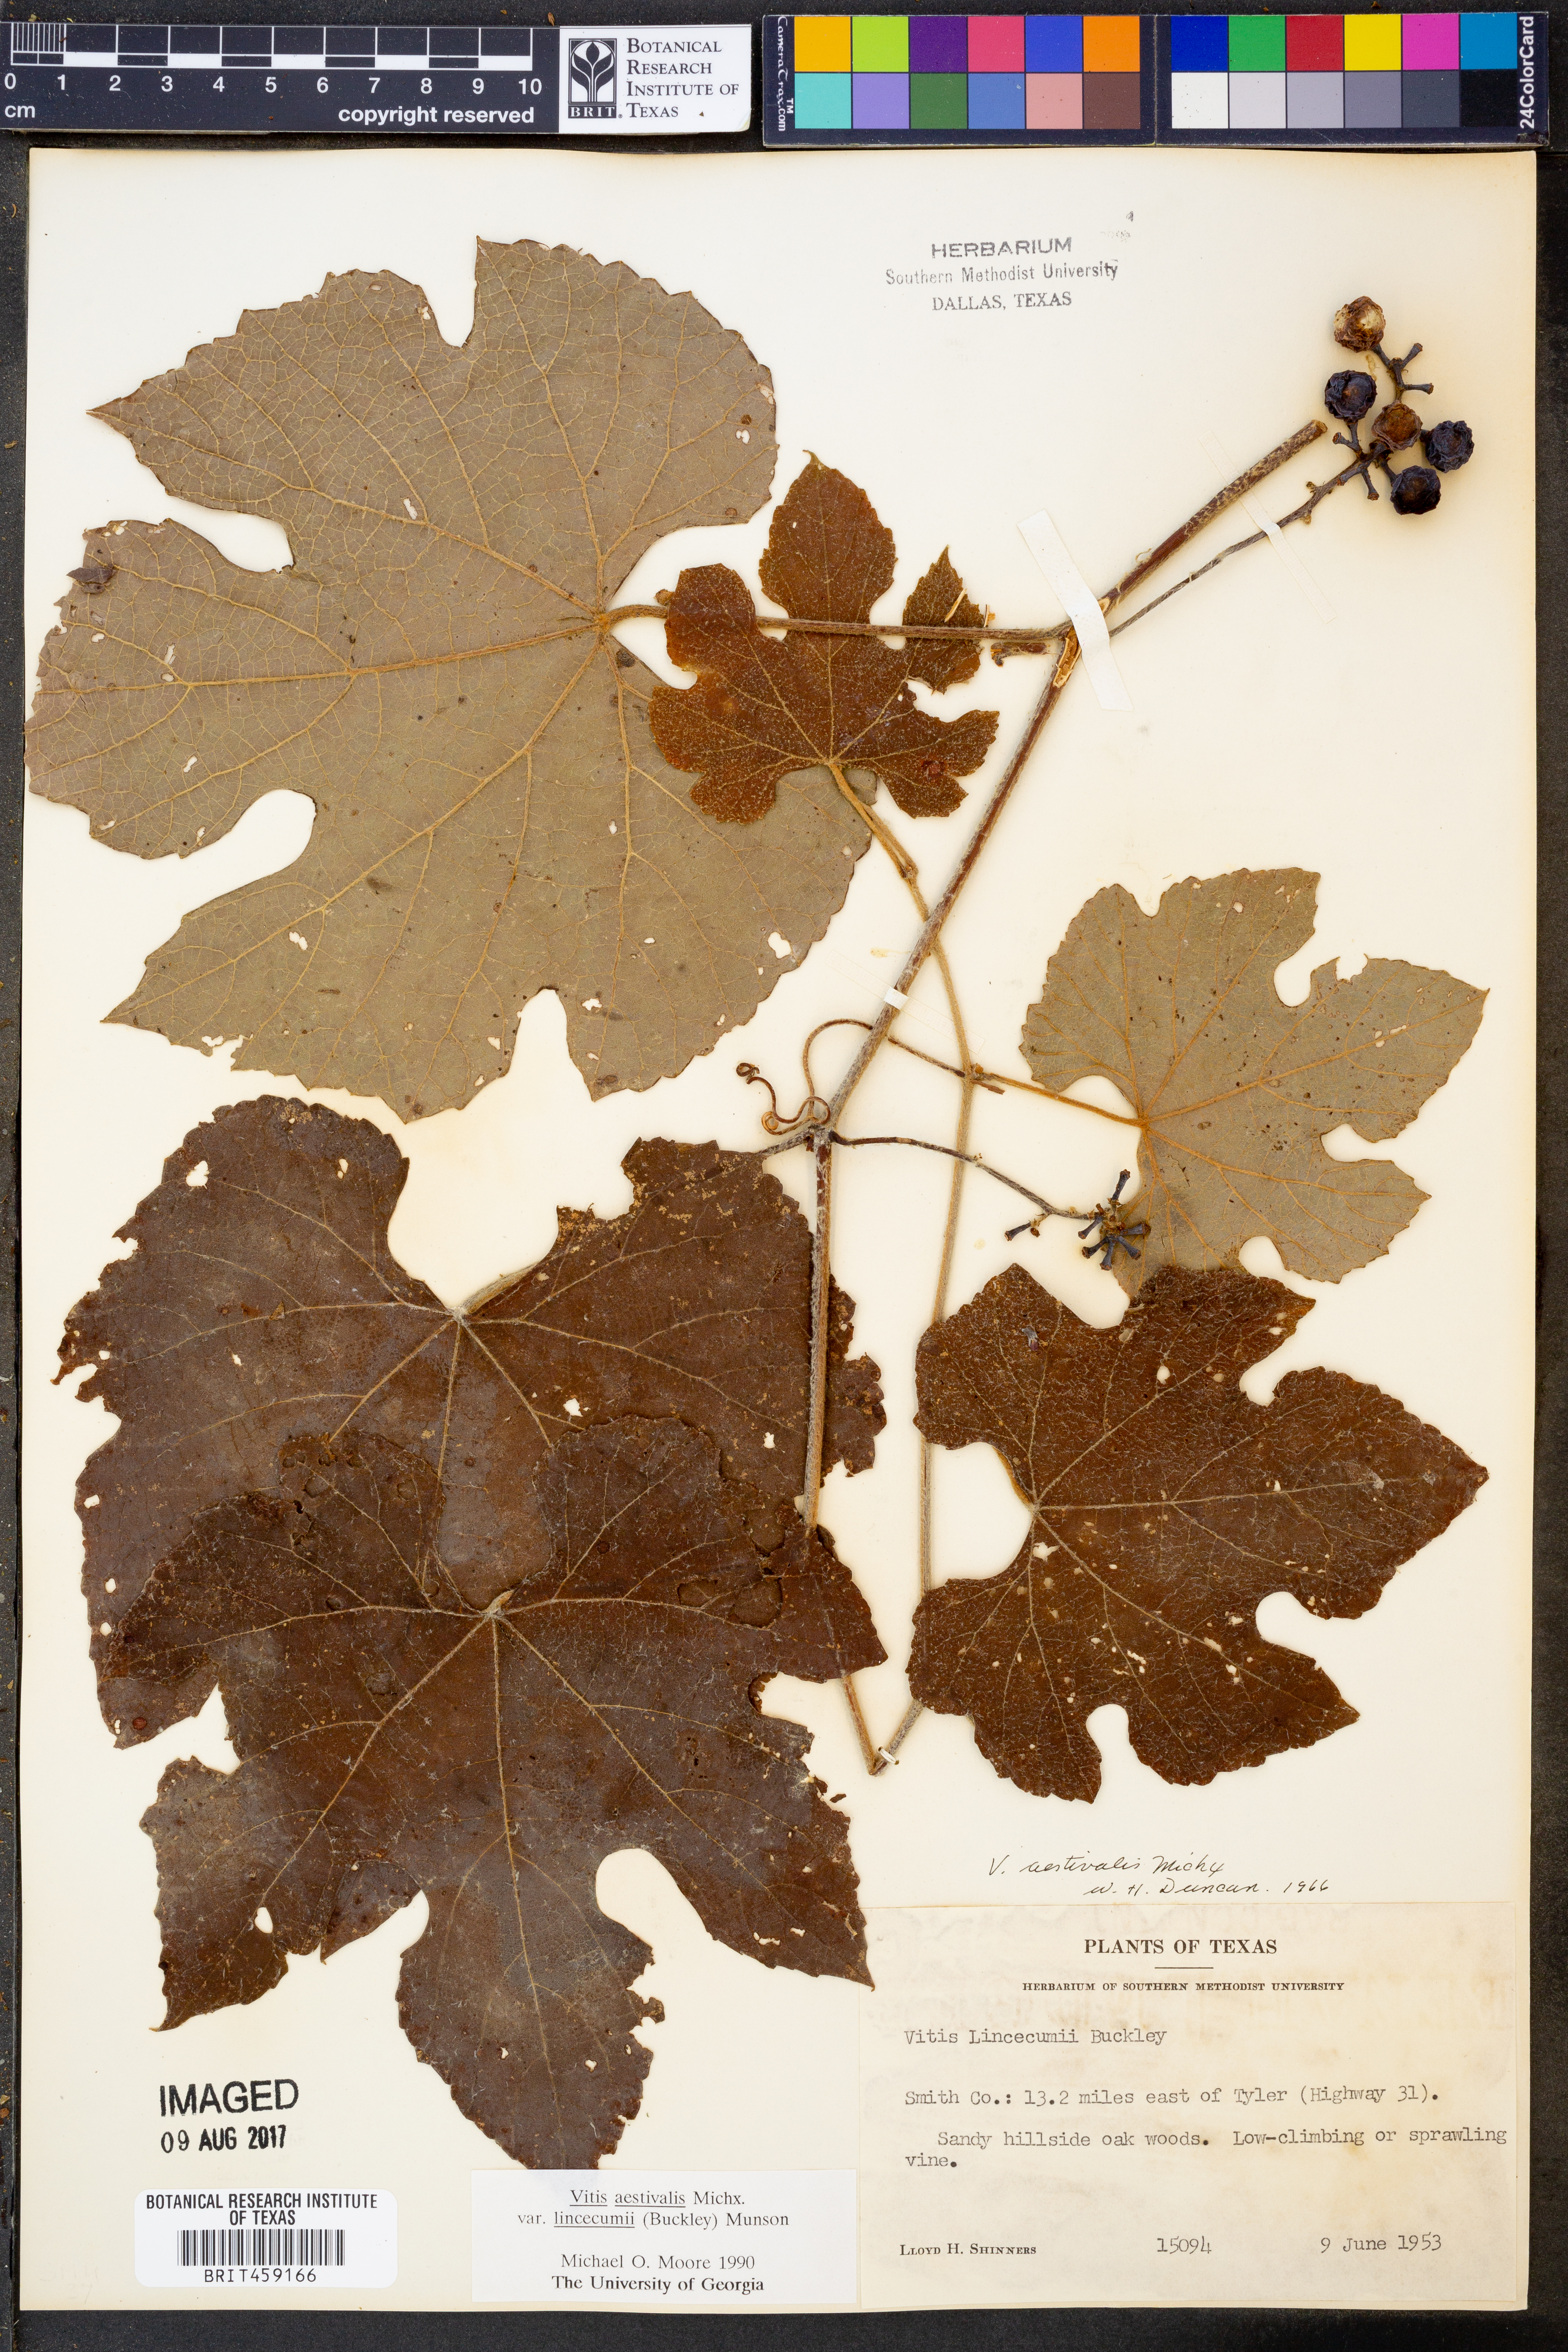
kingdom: Plantae
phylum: Tracheophyta
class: Magnoliopsida
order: Vitales
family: Vitaceae
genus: Vitis
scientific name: Vitis aestivalis
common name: Pigeon grape
